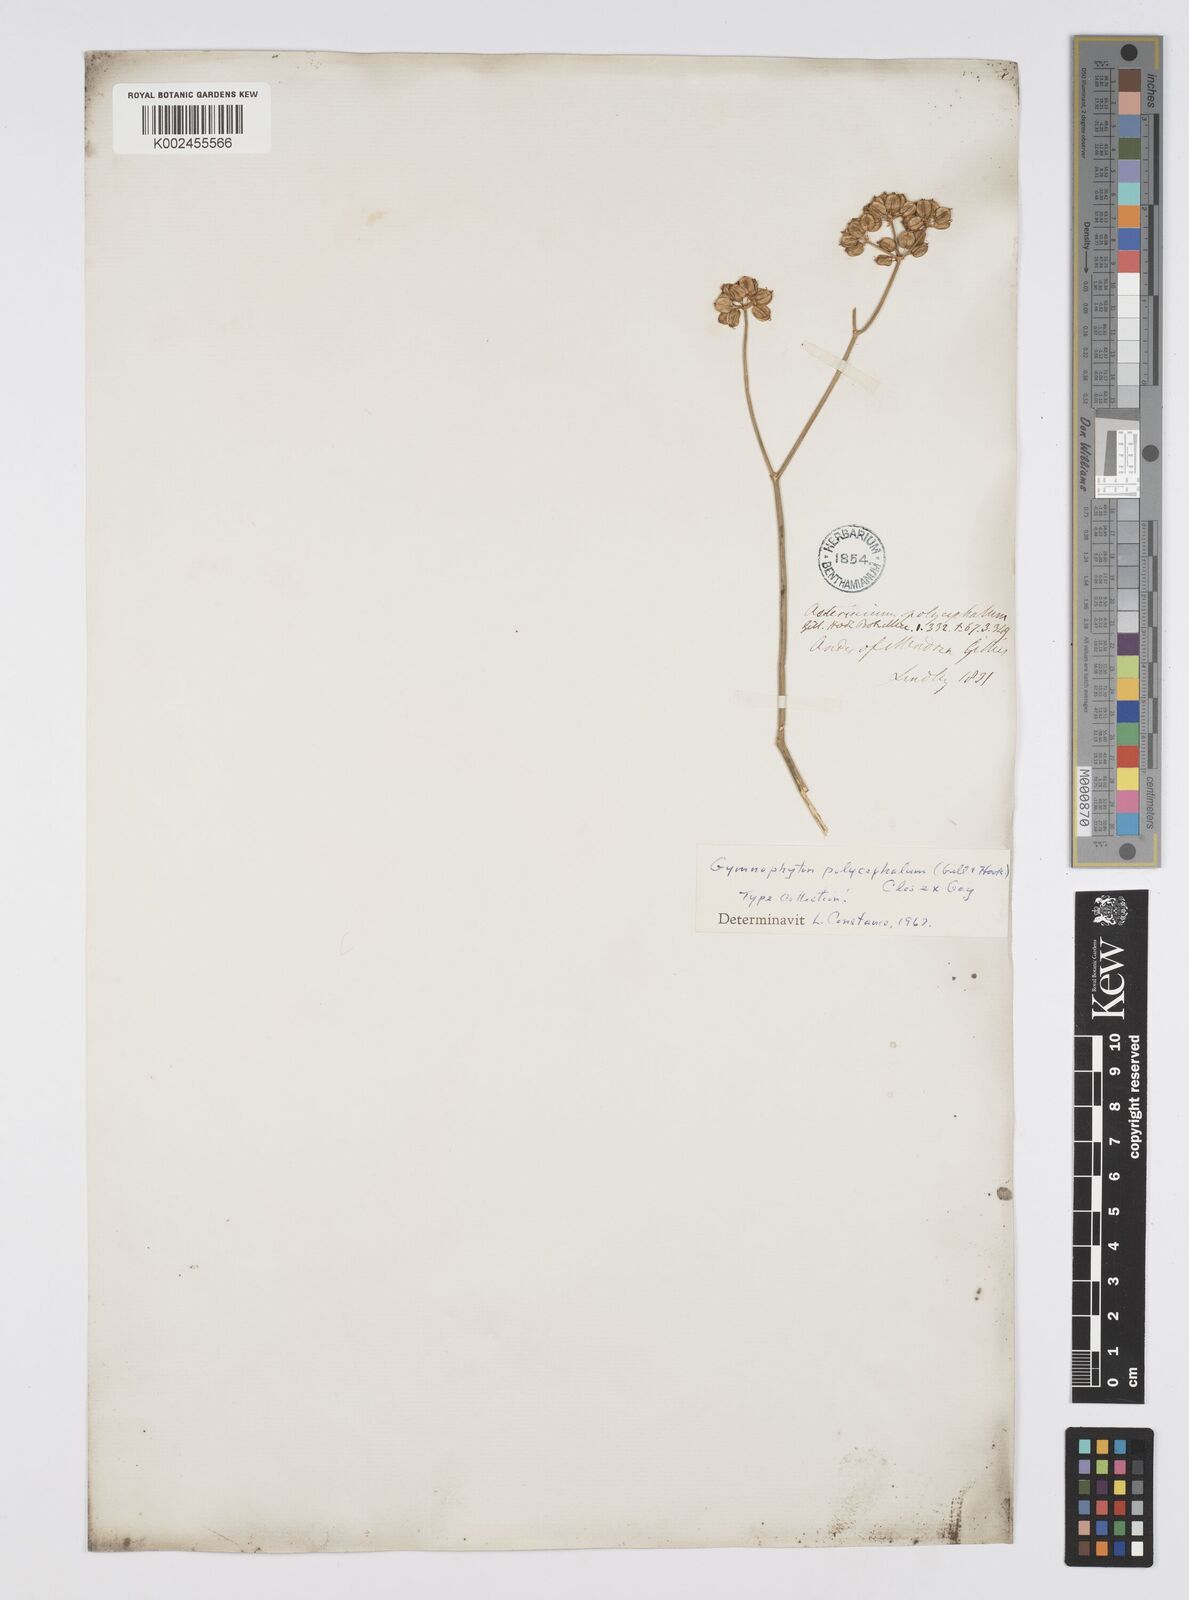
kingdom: Plantae
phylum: Tracheophyta
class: Magnoliopsida
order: Apiales
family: Apiaceae
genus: Gymnophyton
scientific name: Gymnophyton polycephalum
